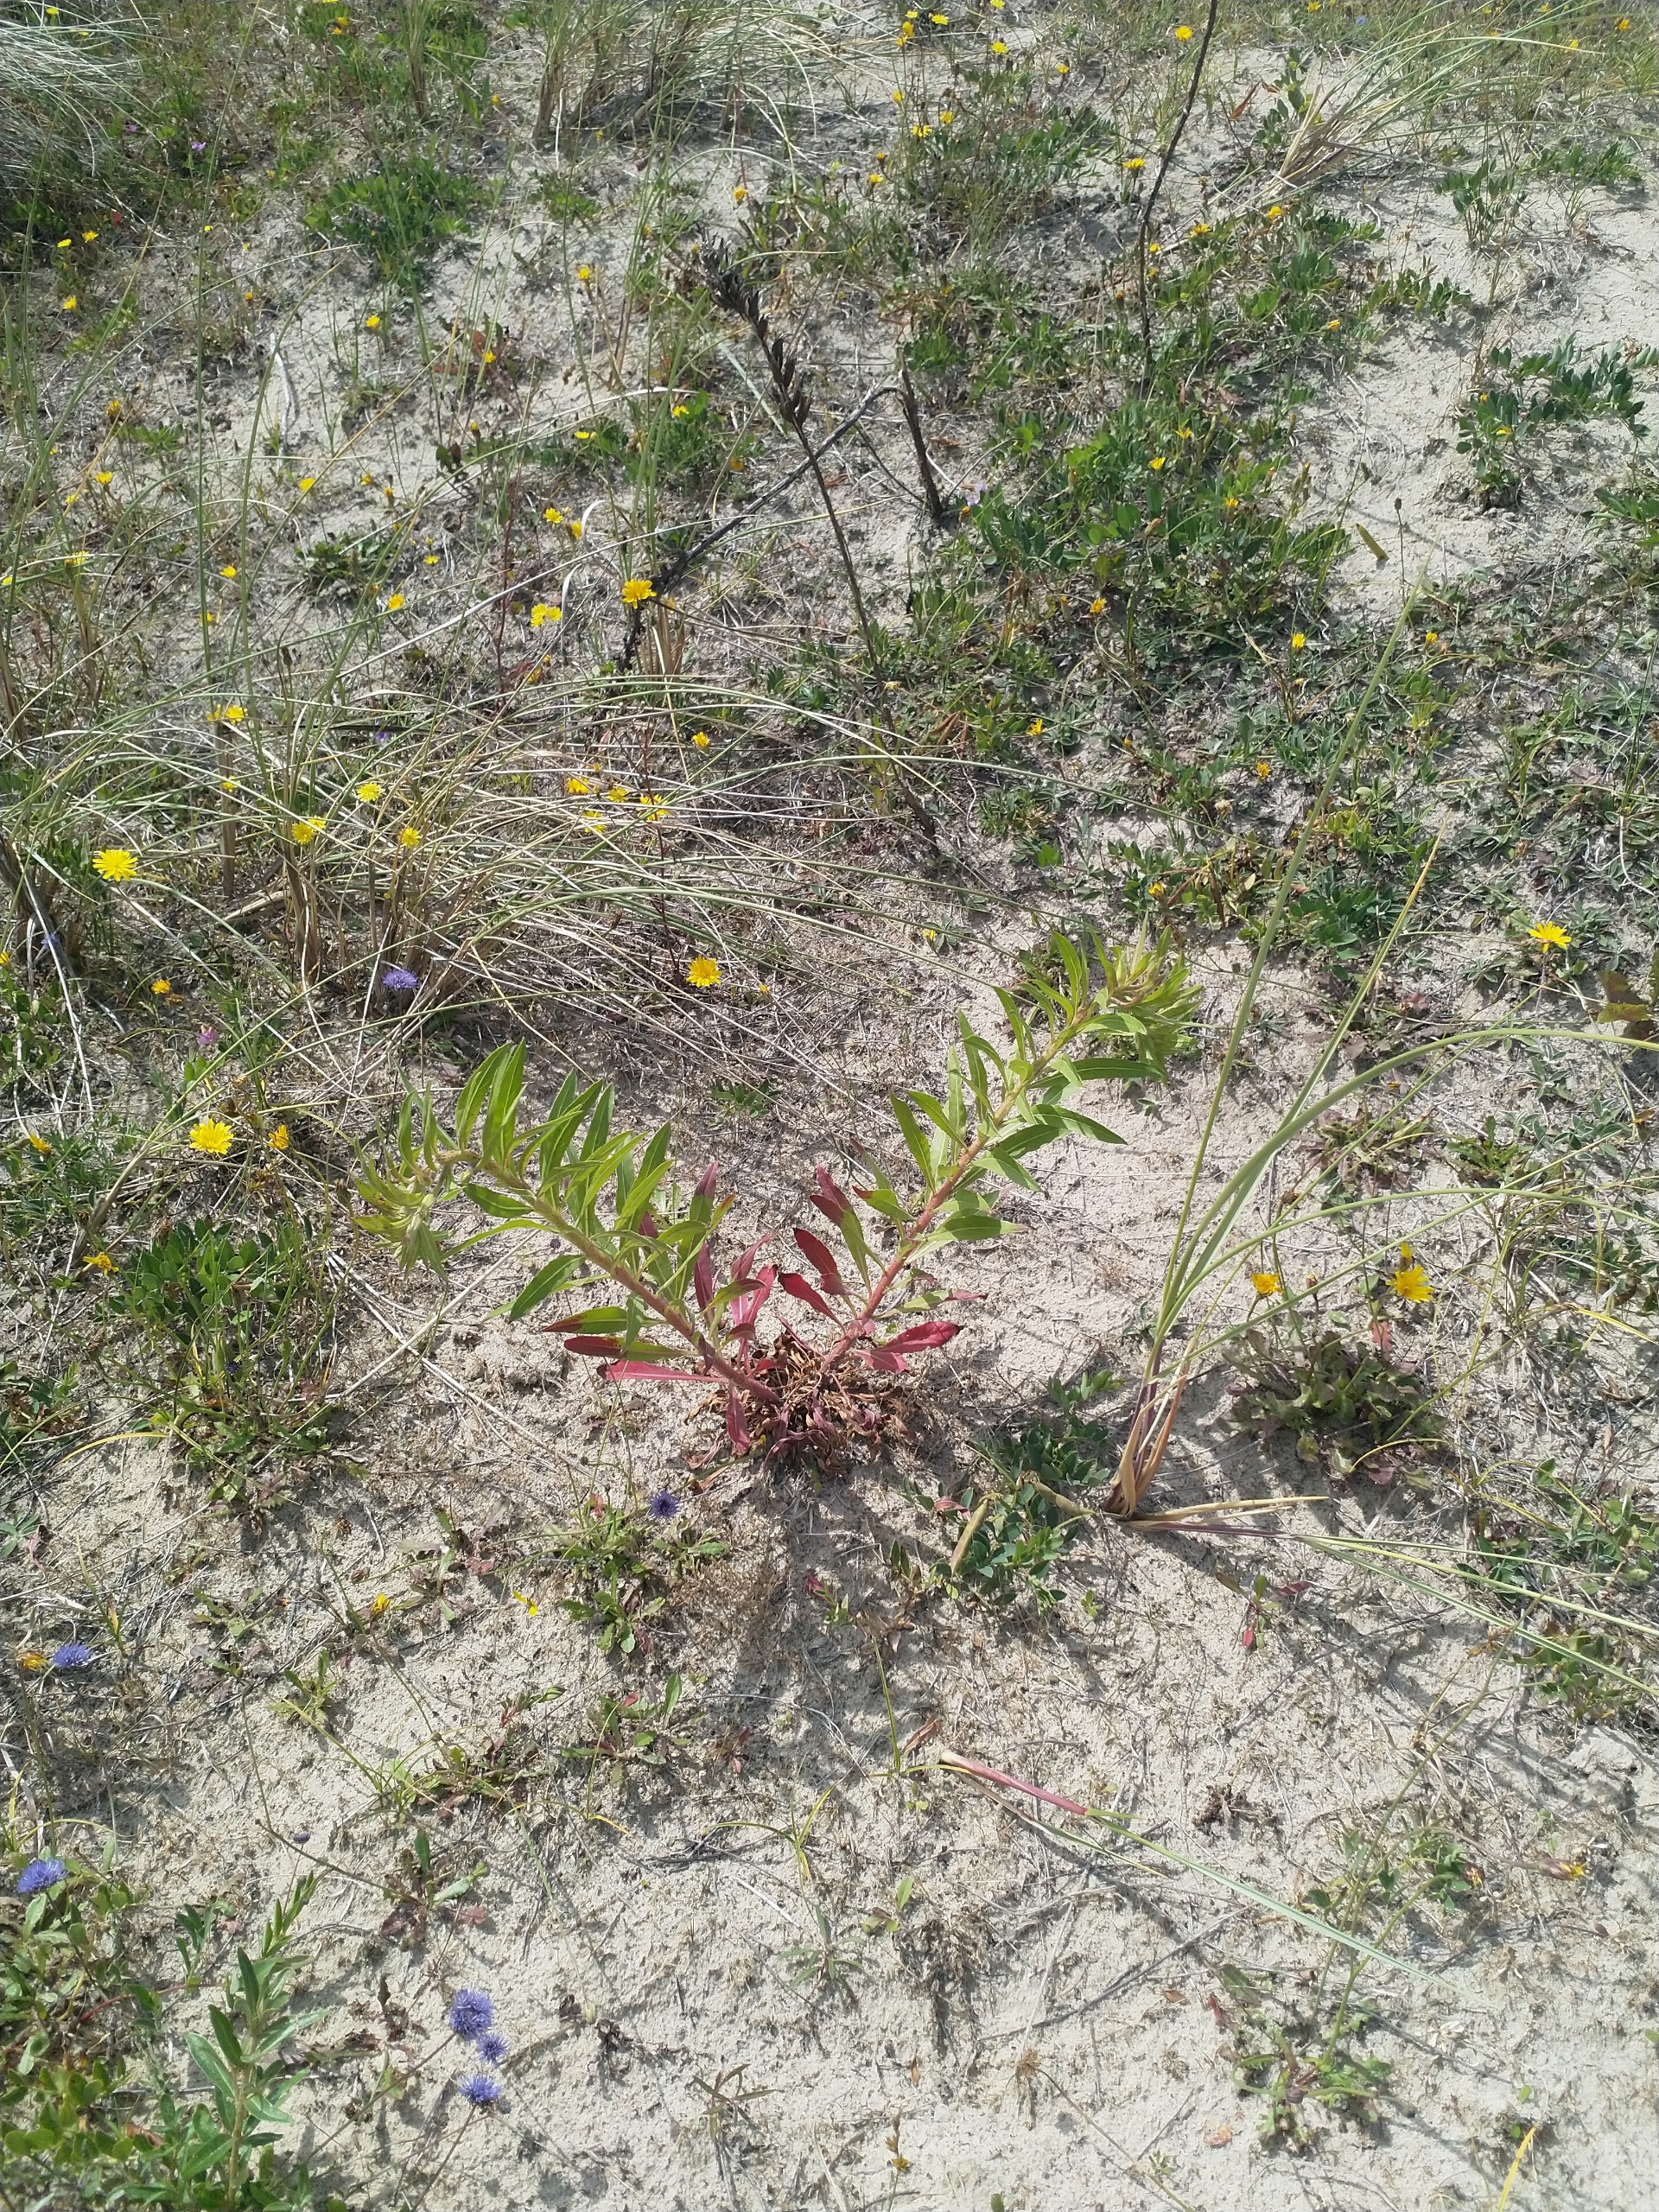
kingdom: Plantae
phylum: Tracheophyta
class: Magnoliopsida
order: Myrtales
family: Onagraceae
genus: Oenothera
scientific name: Oenothera ammophila
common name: Klit-natlys
